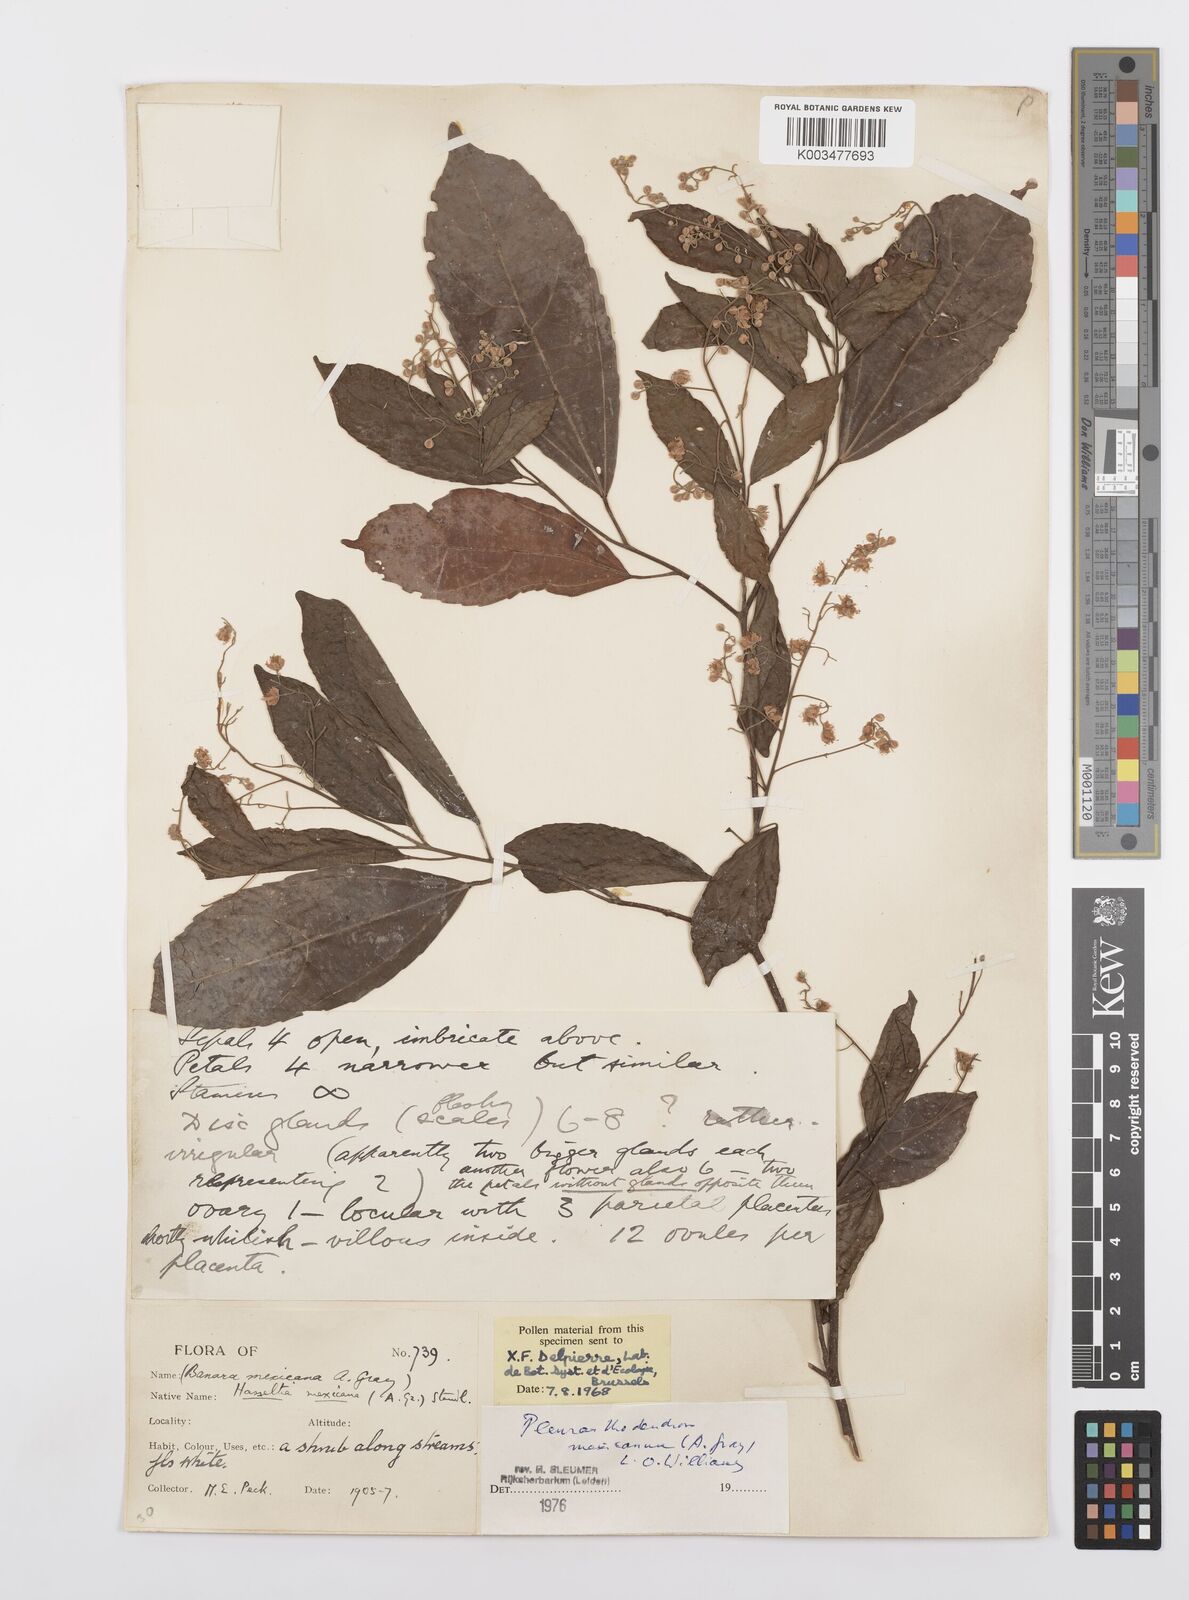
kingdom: Plantae
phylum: Tracheophyta
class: Magnoliopsida
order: Malpighiales
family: Salicaceae
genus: Pleuranthodendron
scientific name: Pleuranthodendron lindenii
